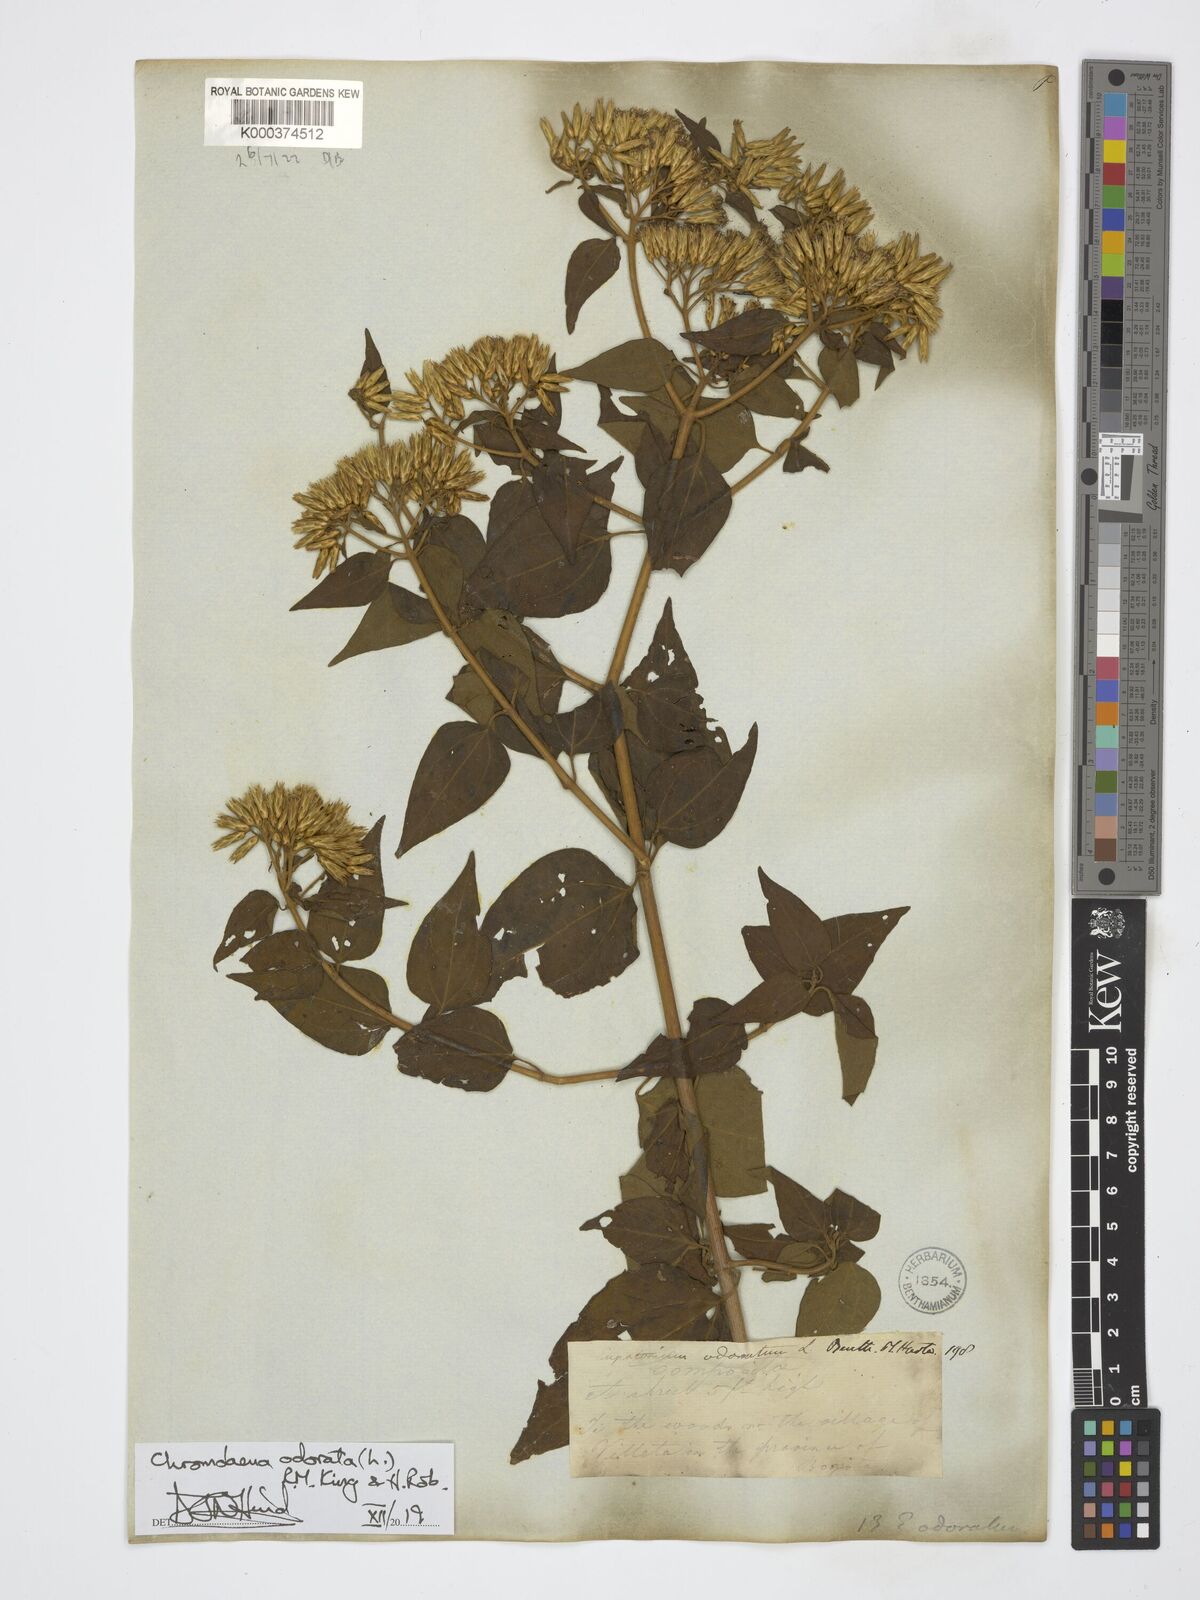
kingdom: Plantae
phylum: Tracheophyta
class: Magnoliopsida
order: Asterales
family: Asteraceae
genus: Chromolaena
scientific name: Chromolaena odorata
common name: Siamweed
